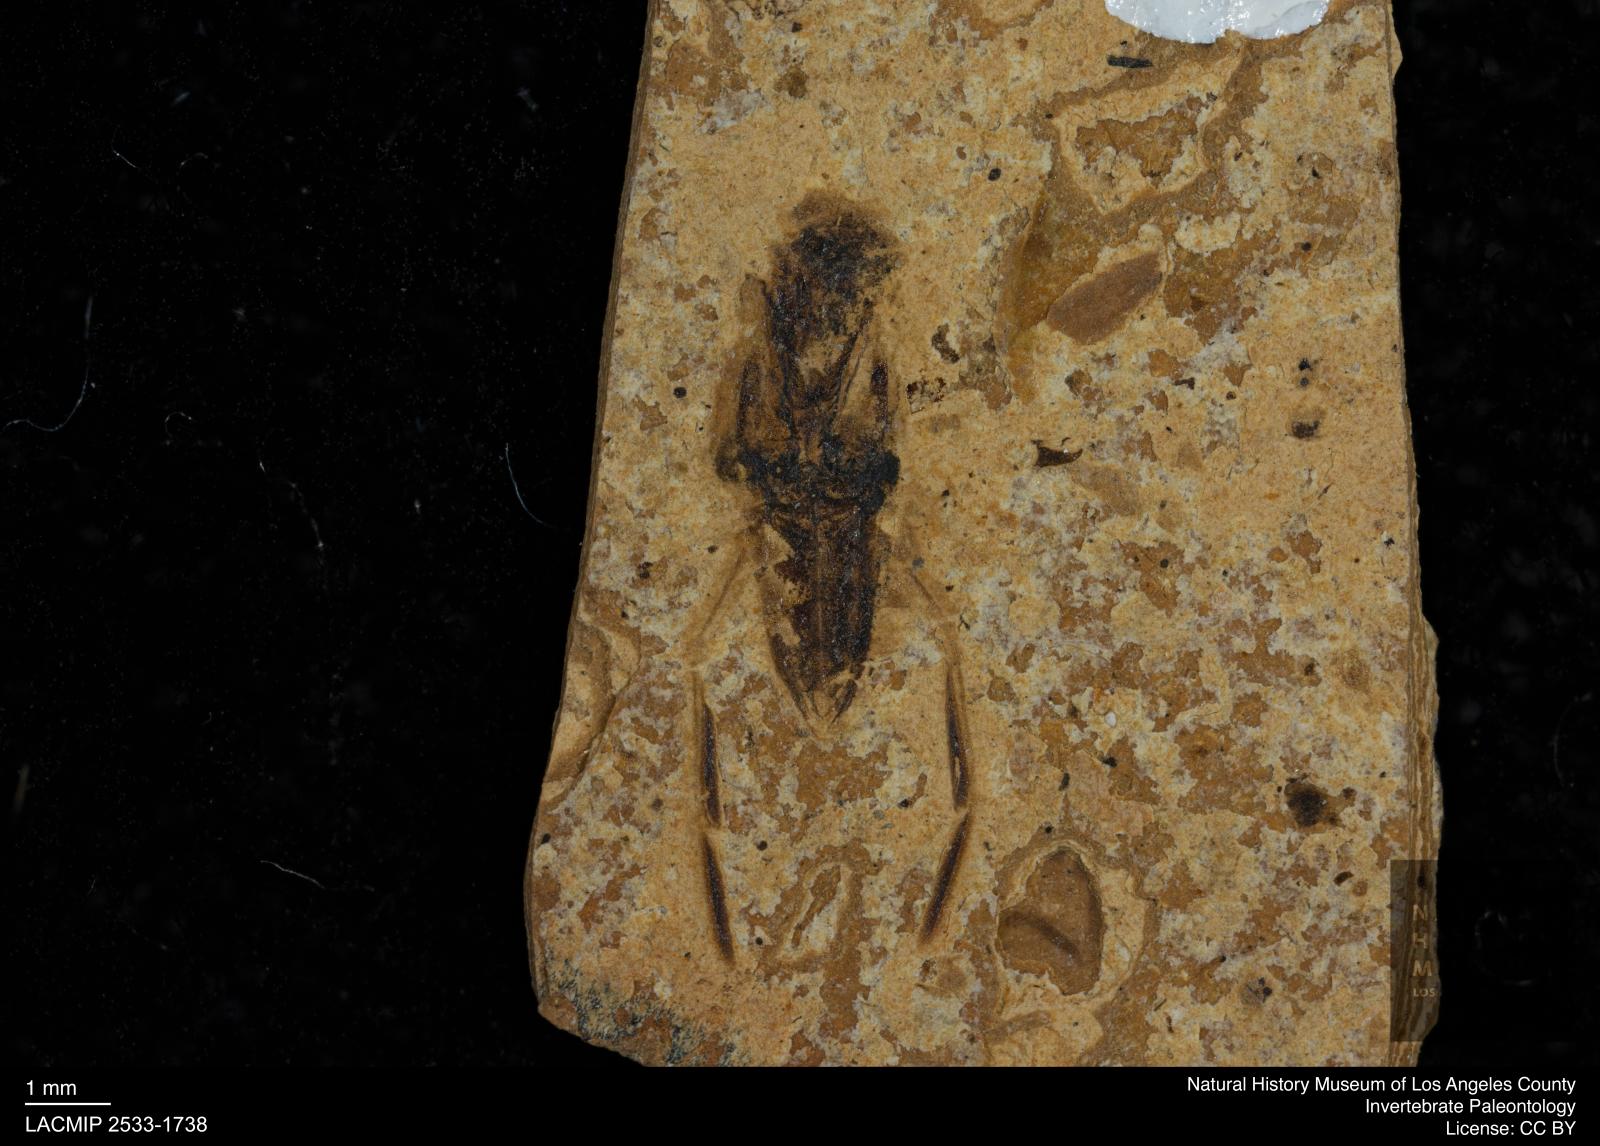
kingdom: Animalia
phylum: Arthropoda
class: Insecta
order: Hemiptera
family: Notonectidae
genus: Notonecta
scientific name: Notonecta
